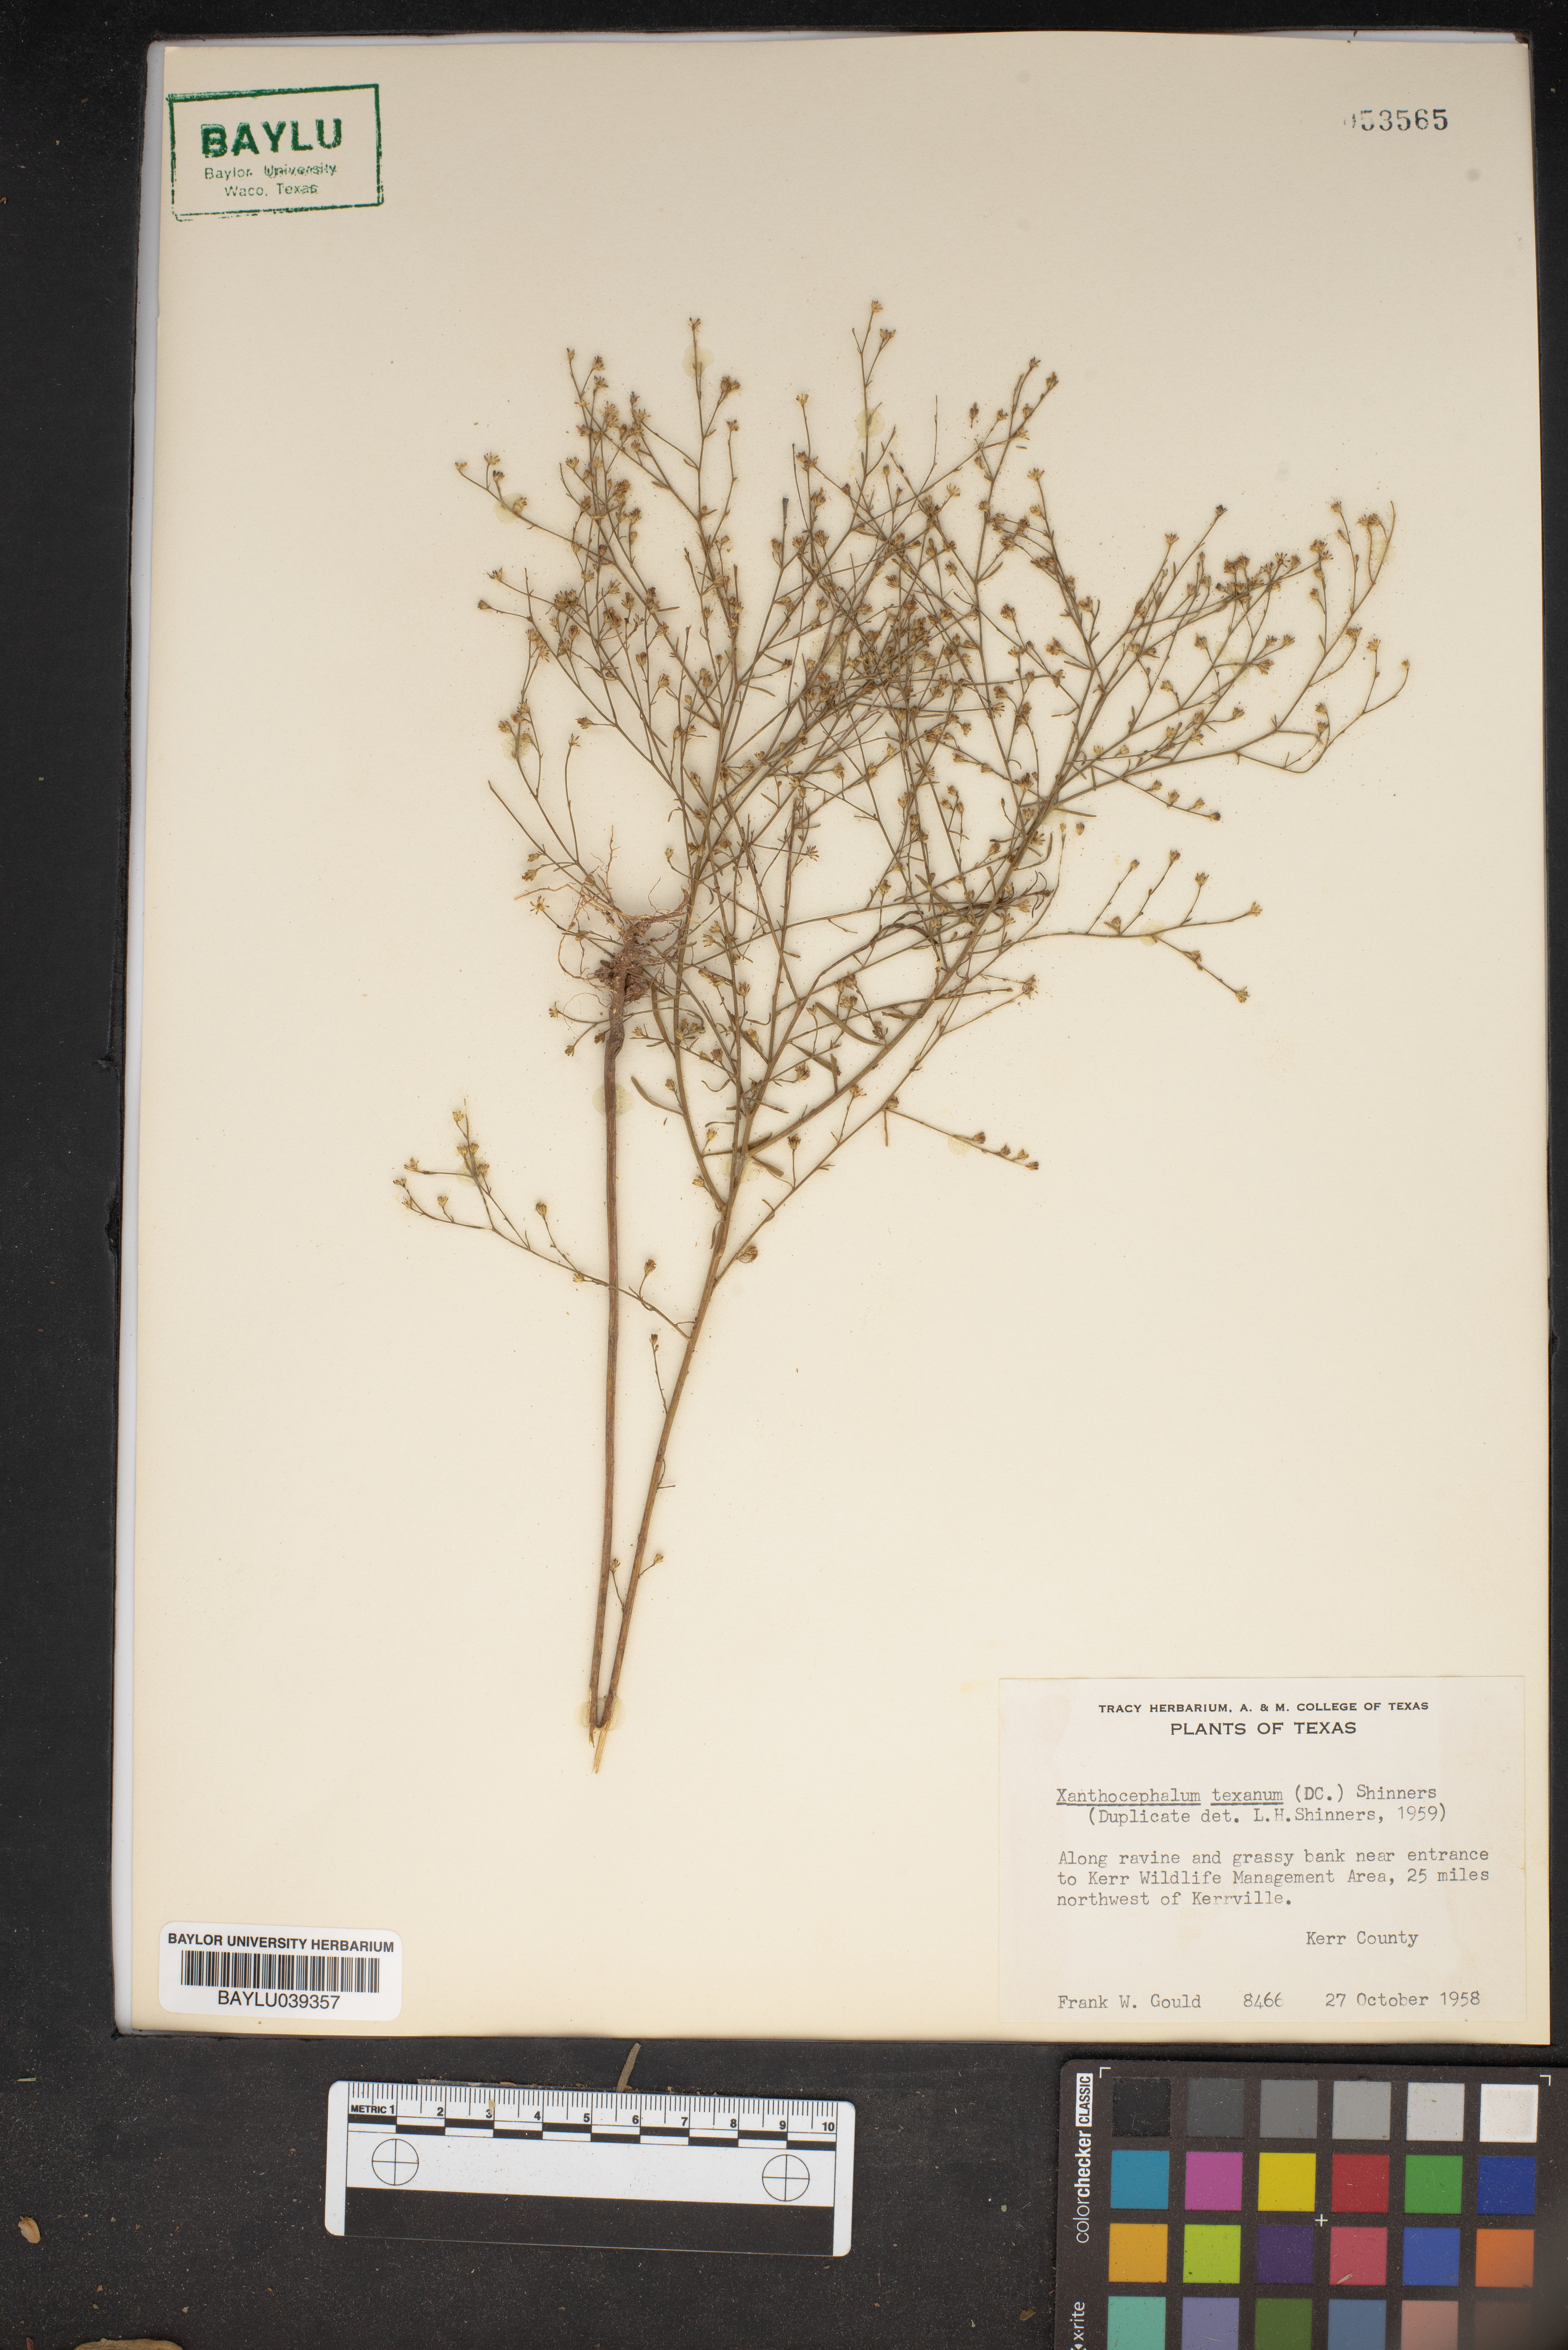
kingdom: Plantae
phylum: Tracheophyta
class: Magnoliopsida
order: Asterales
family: Asteraceae
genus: Gutierrezia
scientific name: Gutierrezia texana
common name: Texas snakeweed
